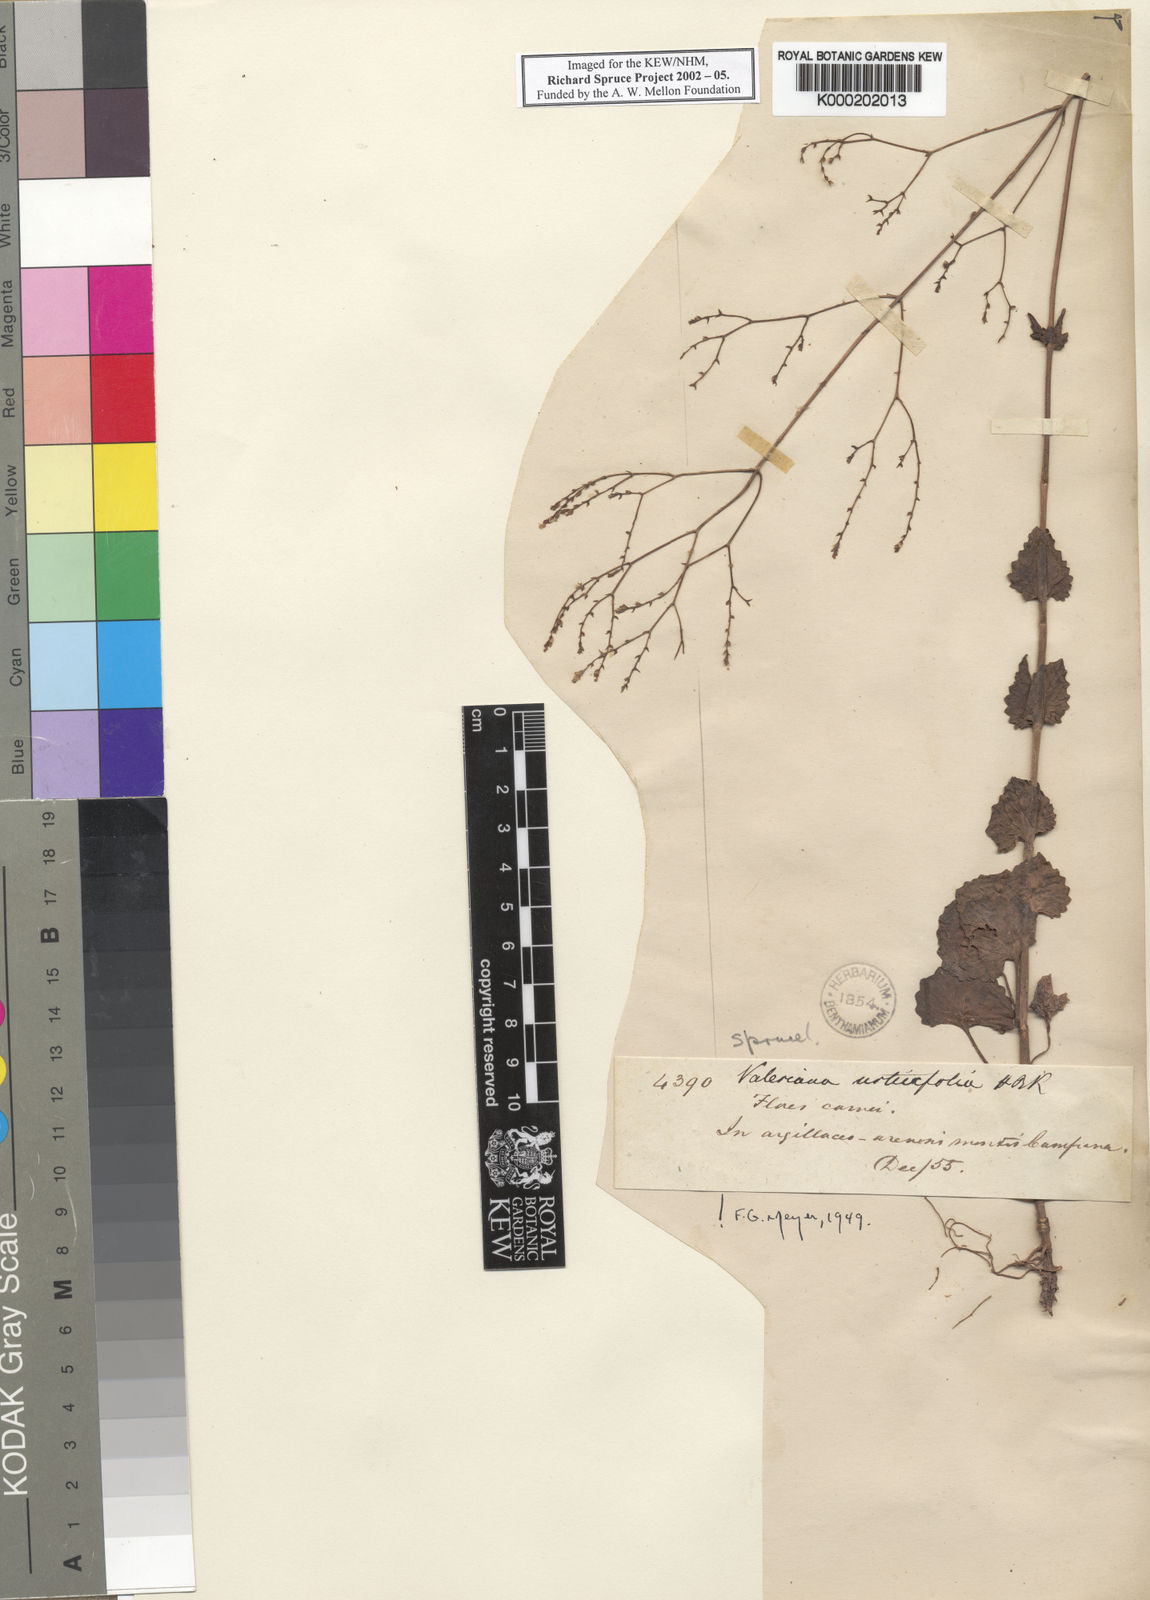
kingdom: Plantae
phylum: Tracheophyta
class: Magnoliopsida
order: Dipsacales
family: Caprifoliaceae
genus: Valeriana
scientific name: Valeriana urticifolia
